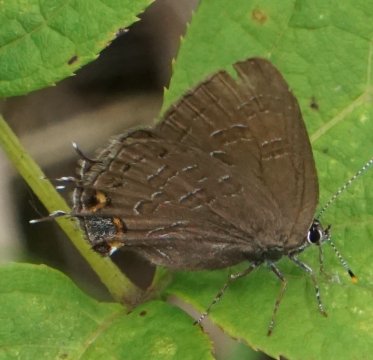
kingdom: Animalia
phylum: Arthropoda
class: Insecta
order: Lepidoptera
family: Lycaenidae
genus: Satyrium
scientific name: Satyrium liparops
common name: Striped Hairstreak
